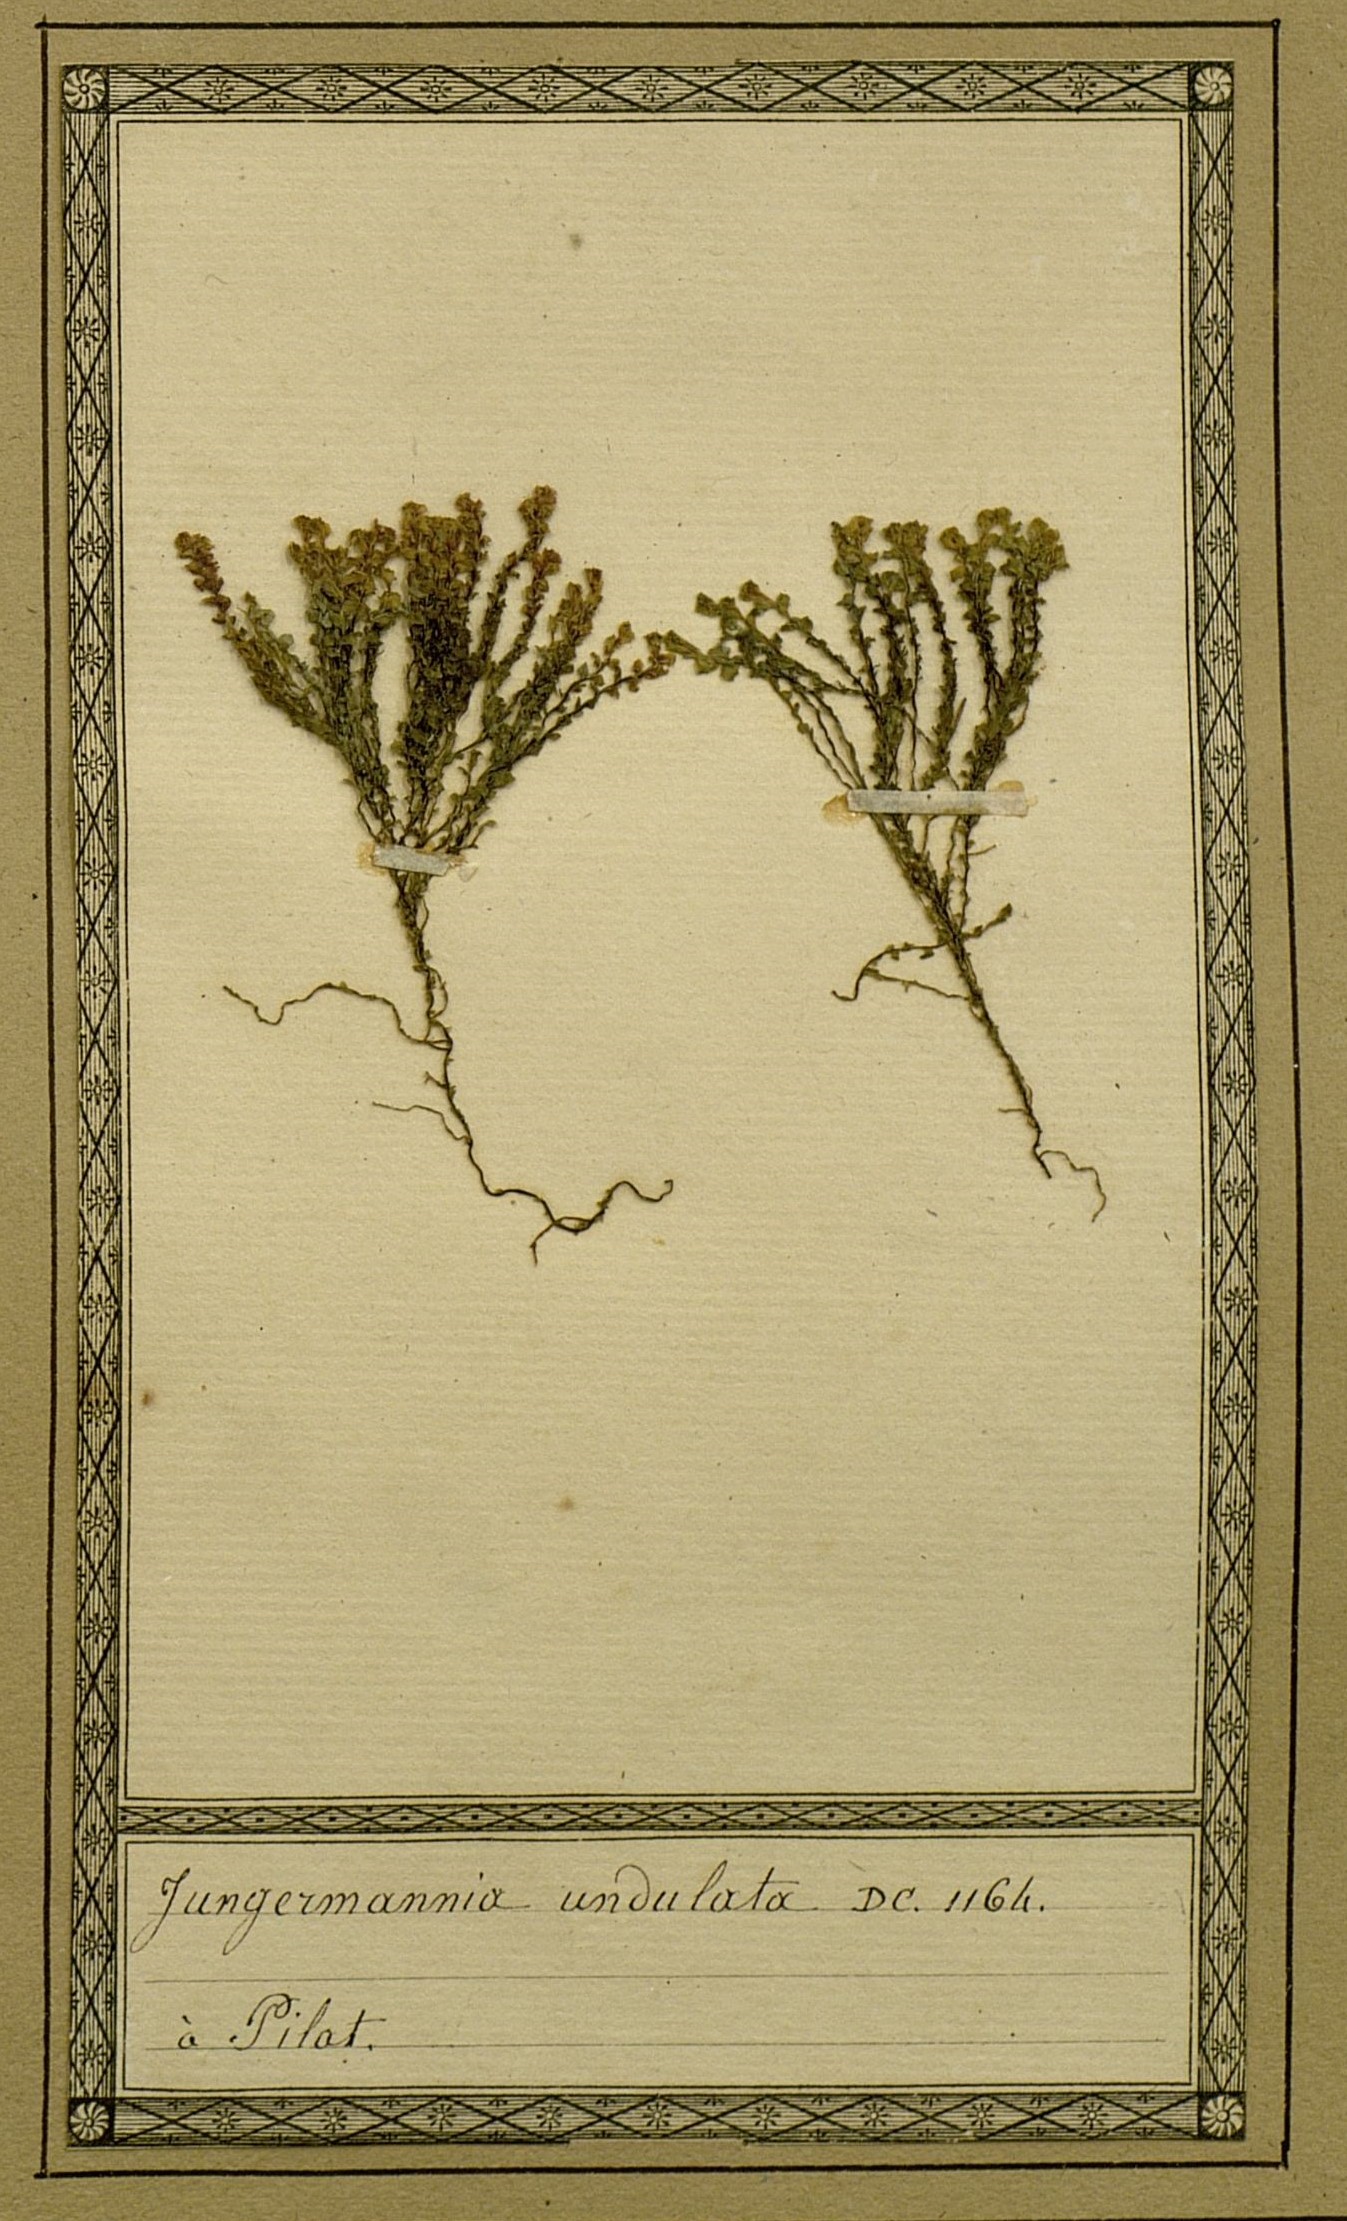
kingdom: Plantae
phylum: Marchantiophyta
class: Jungermanniopsida
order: Jungermanniales
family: Scapaniaceae
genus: Scapania
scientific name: Scapania undulata
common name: Water earwort
